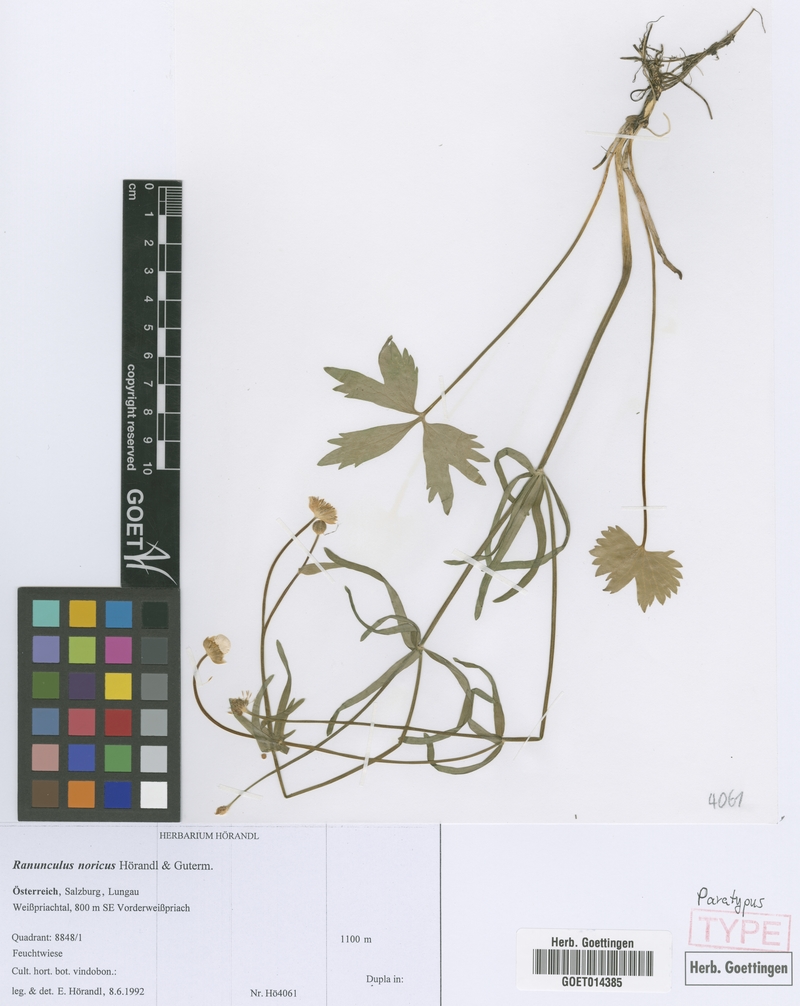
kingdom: Plantae
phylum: Tracheophyta
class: Magnoliopsida
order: Ranunculales
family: Ranunculaceae
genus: Ranunculus
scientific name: Ranunculus noricus
